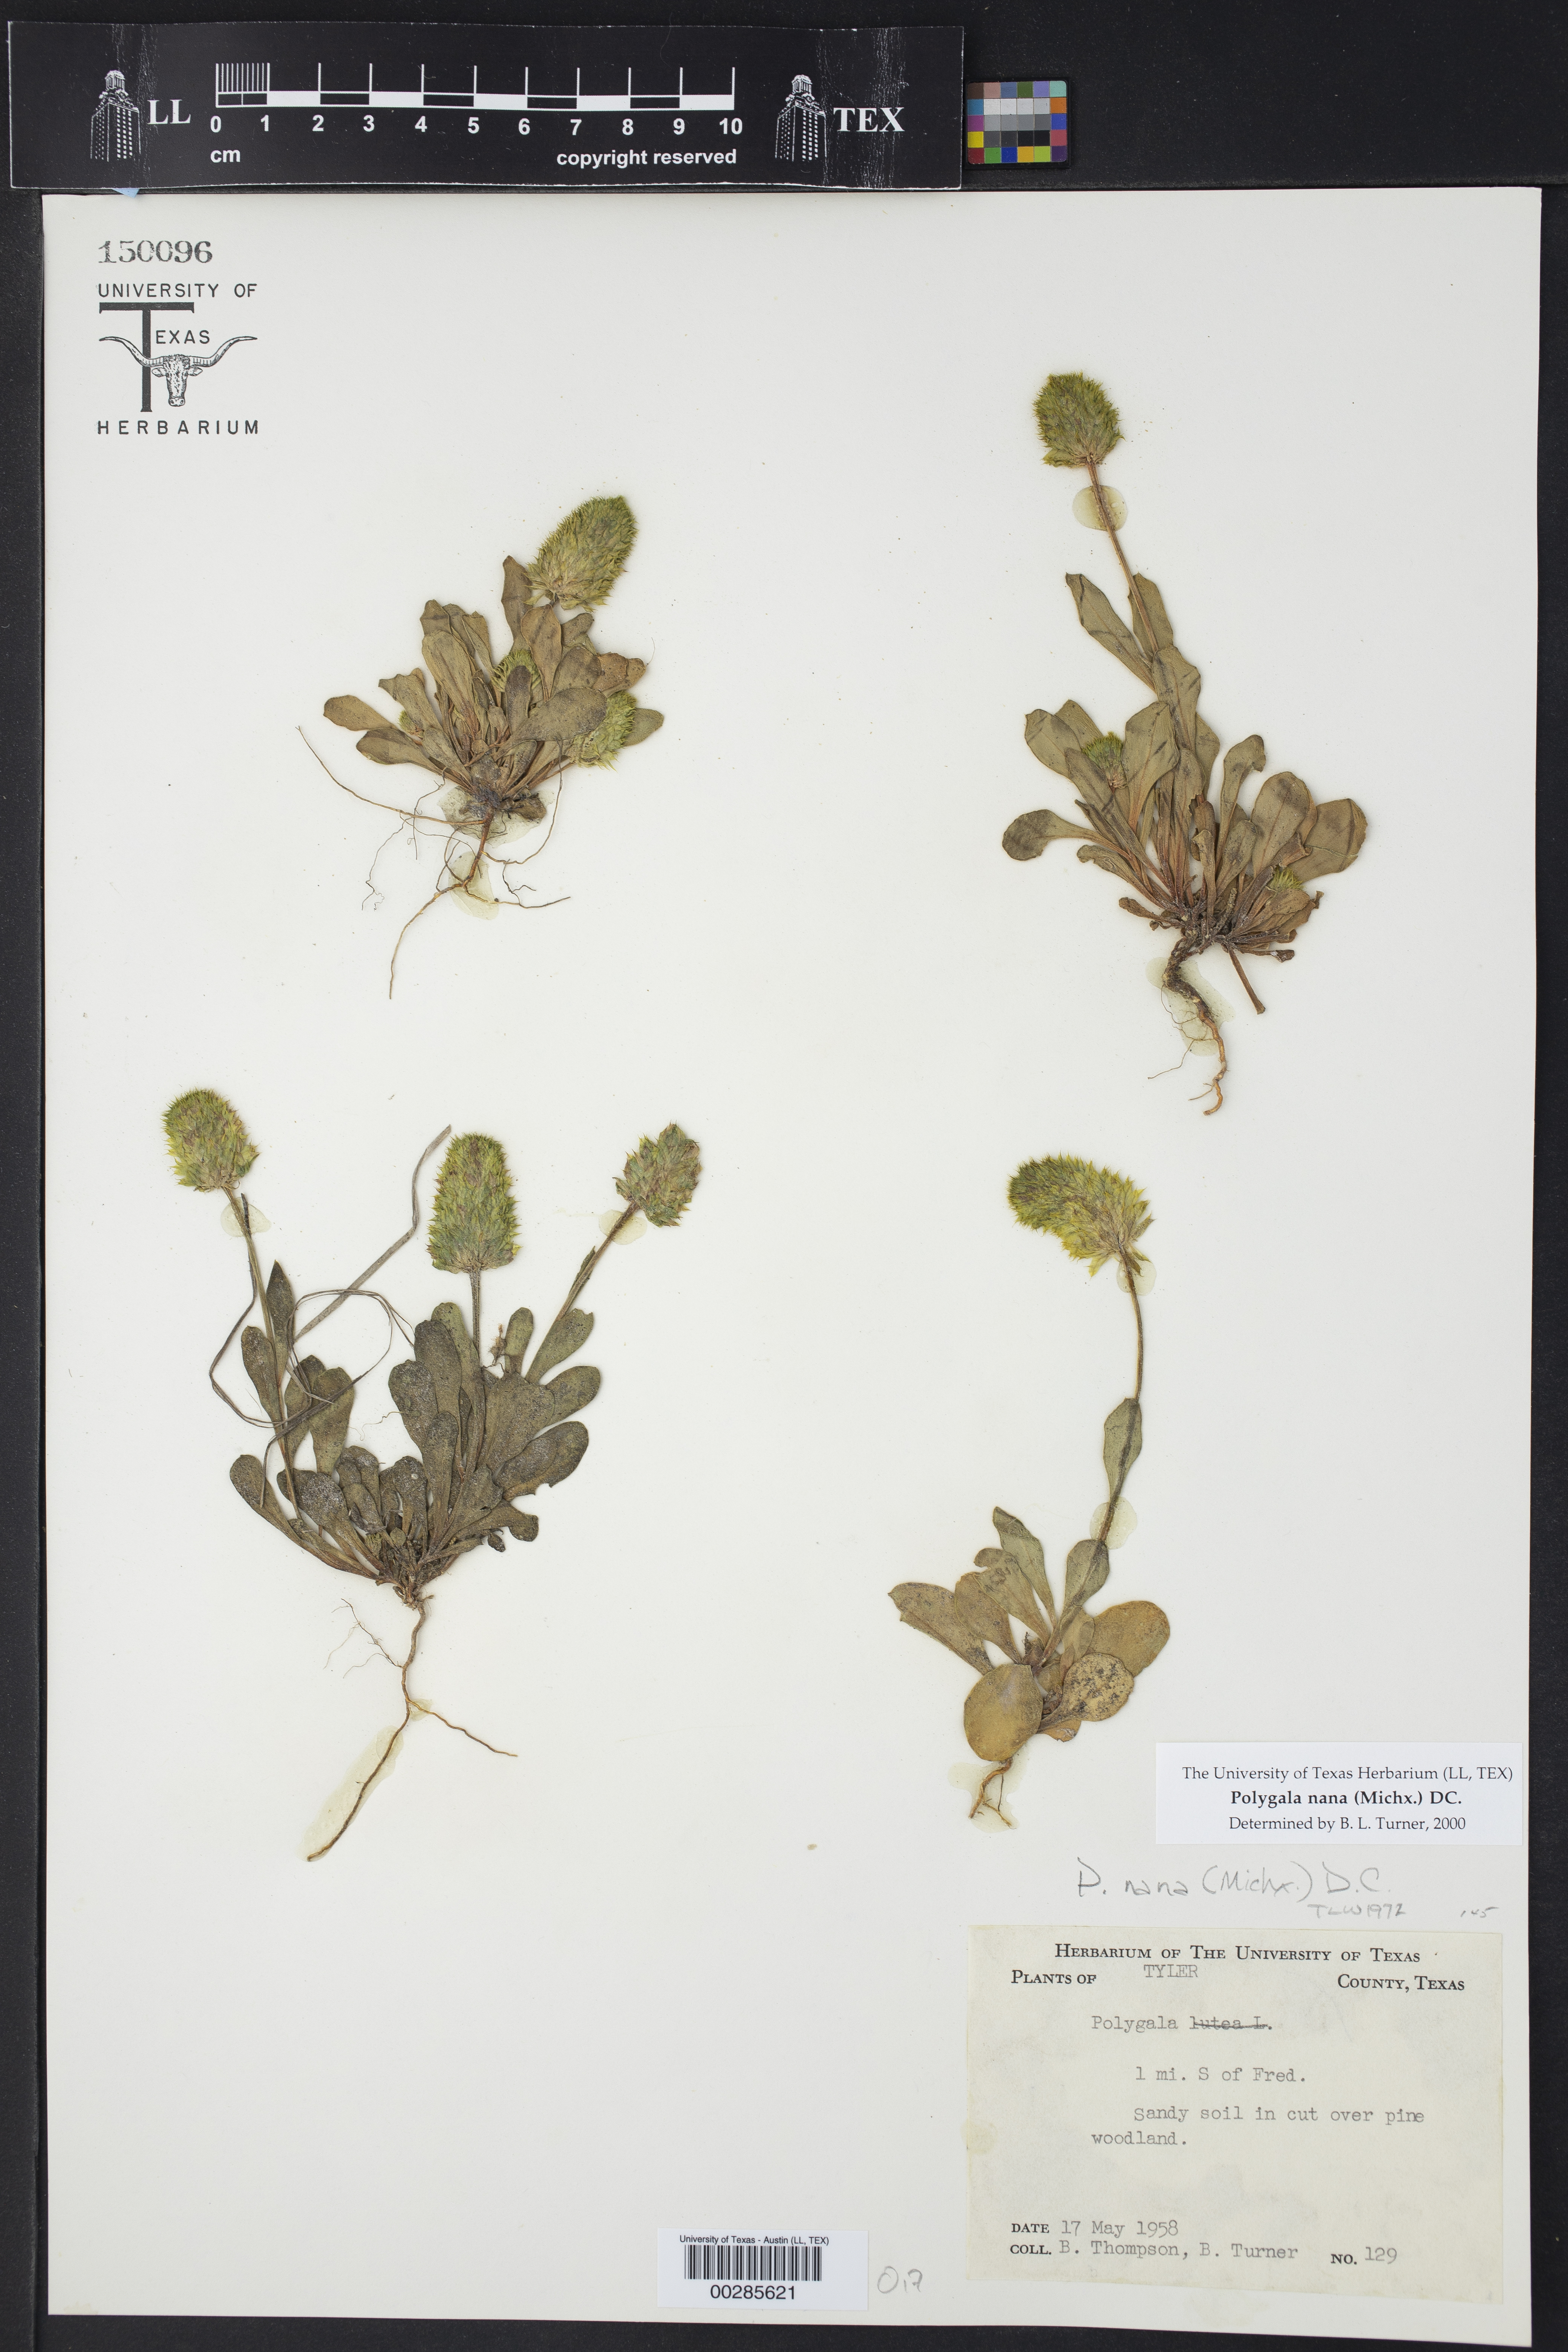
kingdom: Plantae
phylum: Tracheophyta
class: Magnoliopsida
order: Fabales
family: Polygalaceae
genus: Polygala
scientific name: Polygala nana
